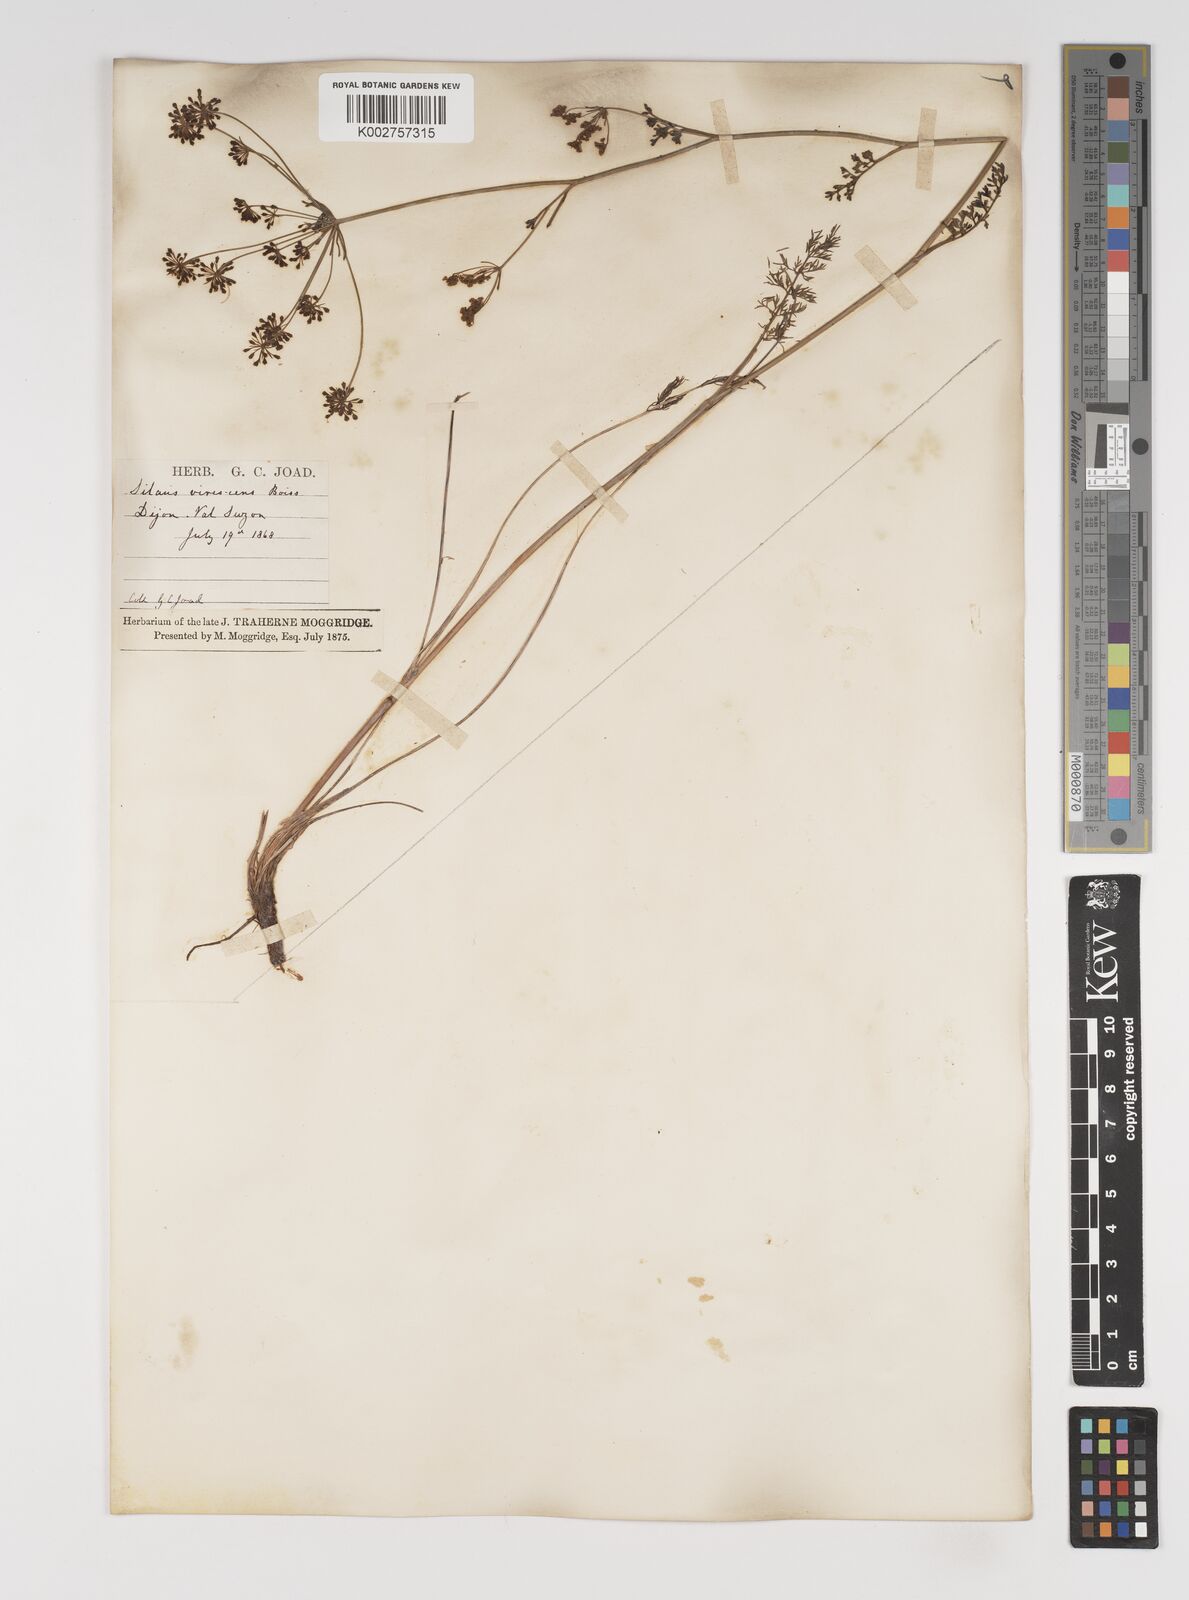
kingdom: Plantae
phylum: Tracheophyta
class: Magnoliopsida
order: Apiales
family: Apiaceae
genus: Gasparinia
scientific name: Gasparinia peucedanoides
